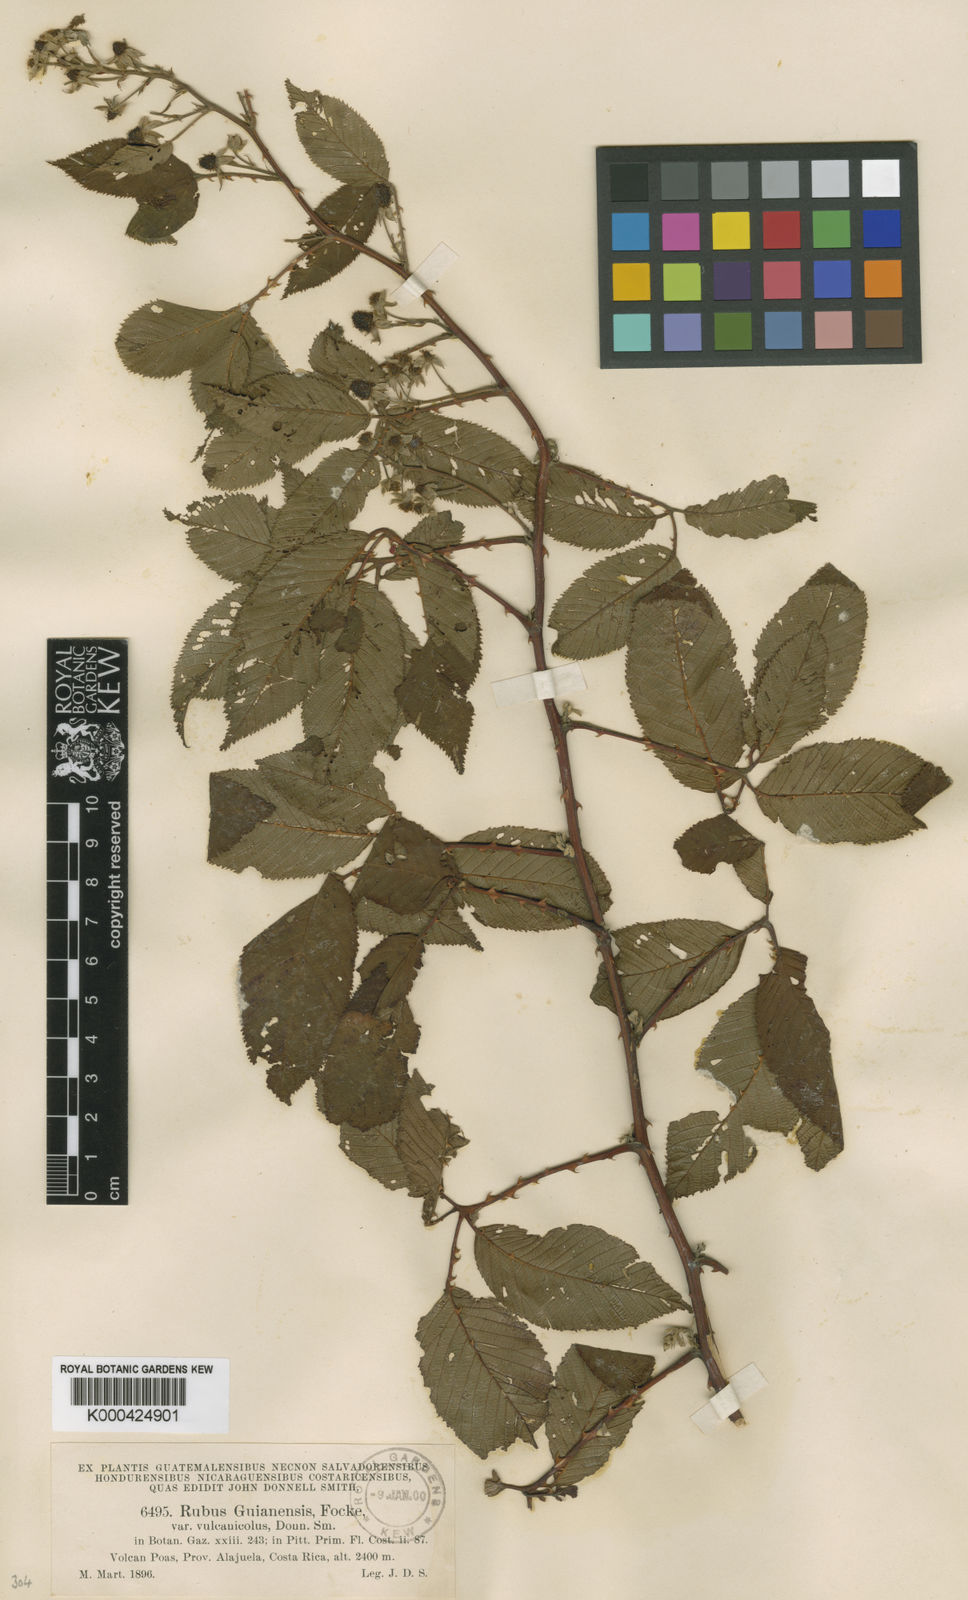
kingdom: Plantae
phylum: Tracheophyta
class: Magnoliopsida
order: Rosales
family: Rosaceae
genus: Rubus
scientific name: Rubus miser
